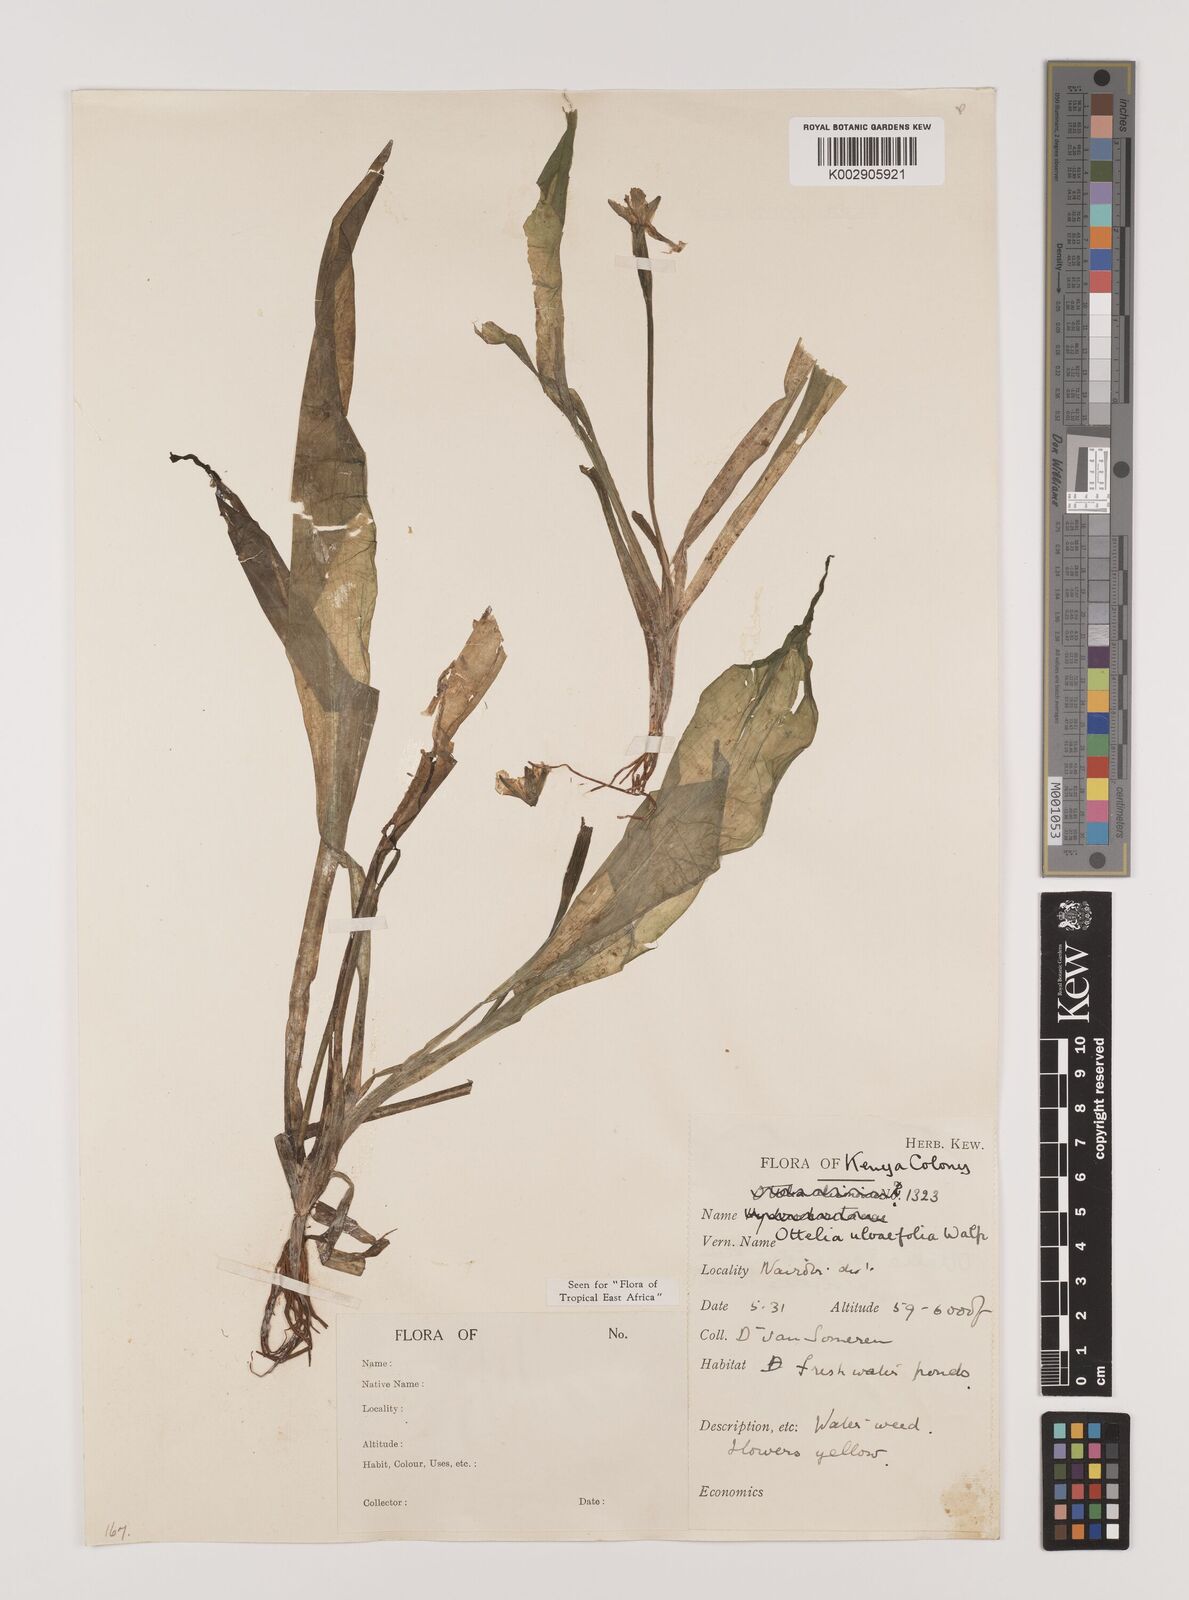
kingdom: Plantae
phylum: Tracheophyta
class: Liliopsida
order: Alismatales
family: Hydrocharitaceae
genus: Ottelia
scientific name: Ottelia ulvifolia
